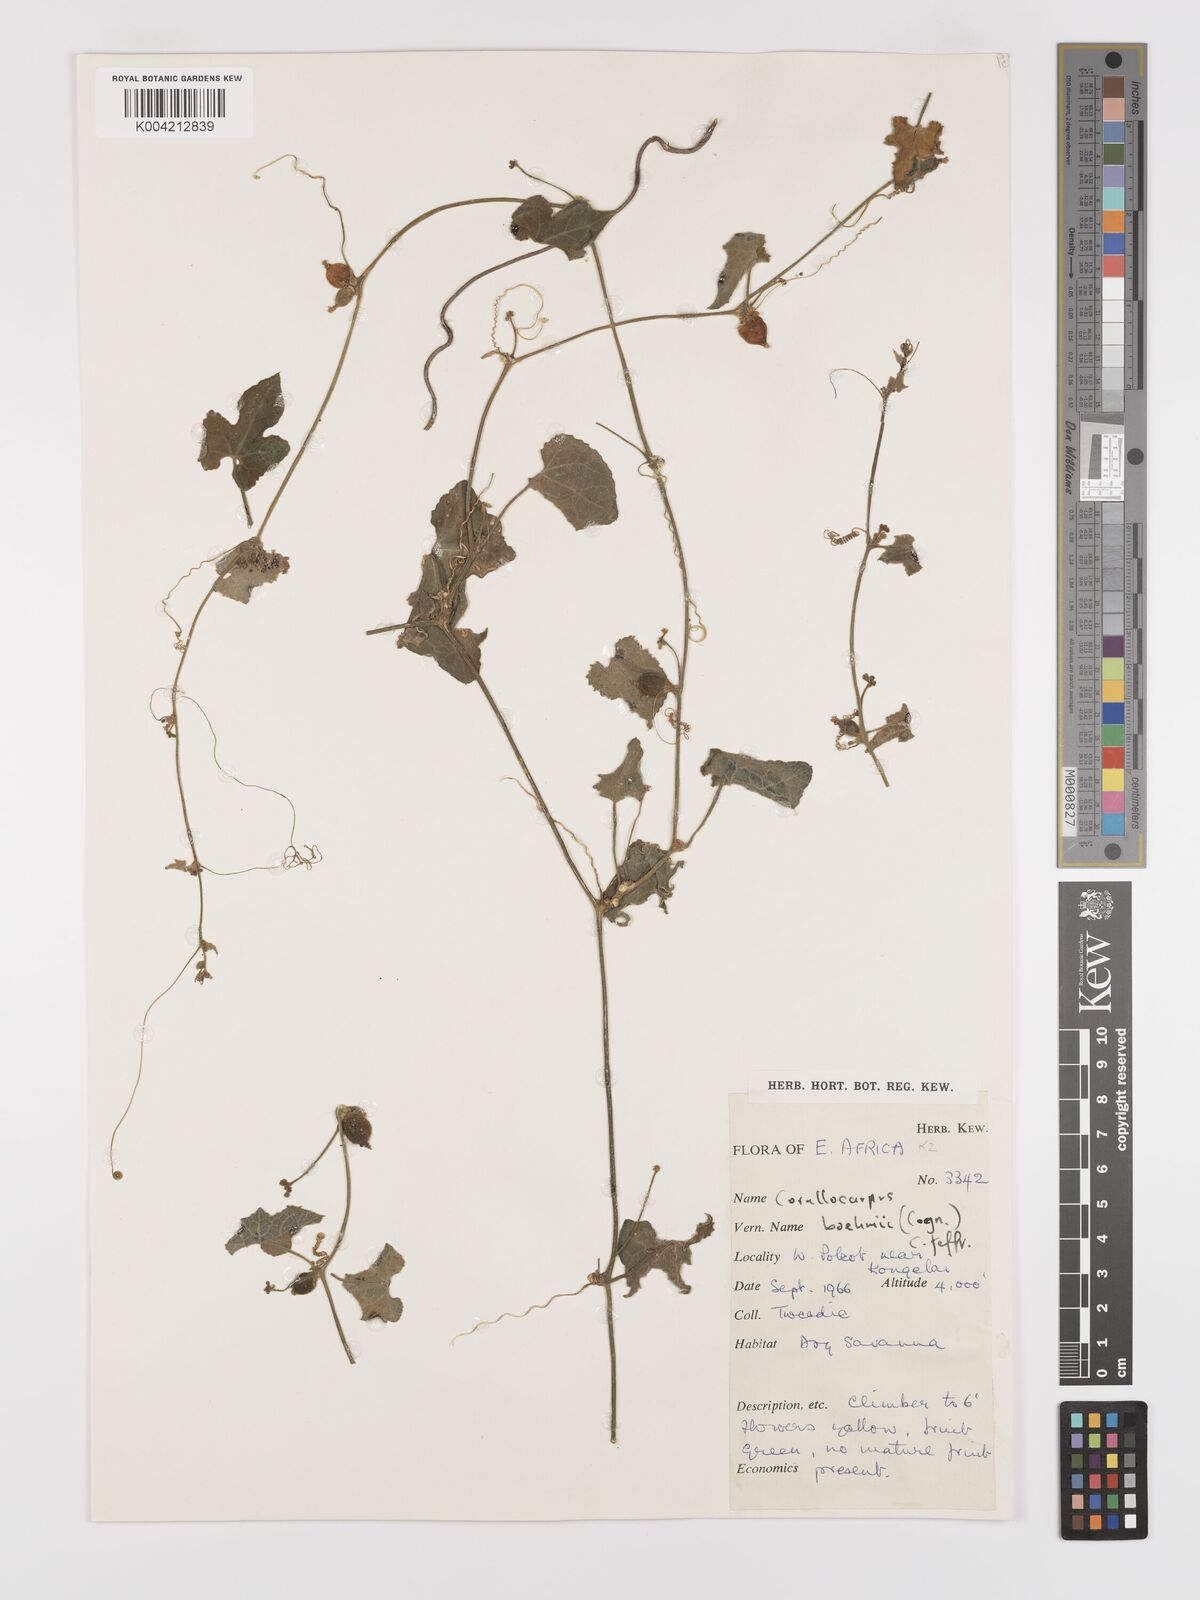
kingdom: Plantae
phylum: Tracheophyta
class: Magnoliopsida
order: Cucurbitales
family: Cucurbitaceae
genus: Corallocarpus
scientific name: Corallocarpus boehmii
